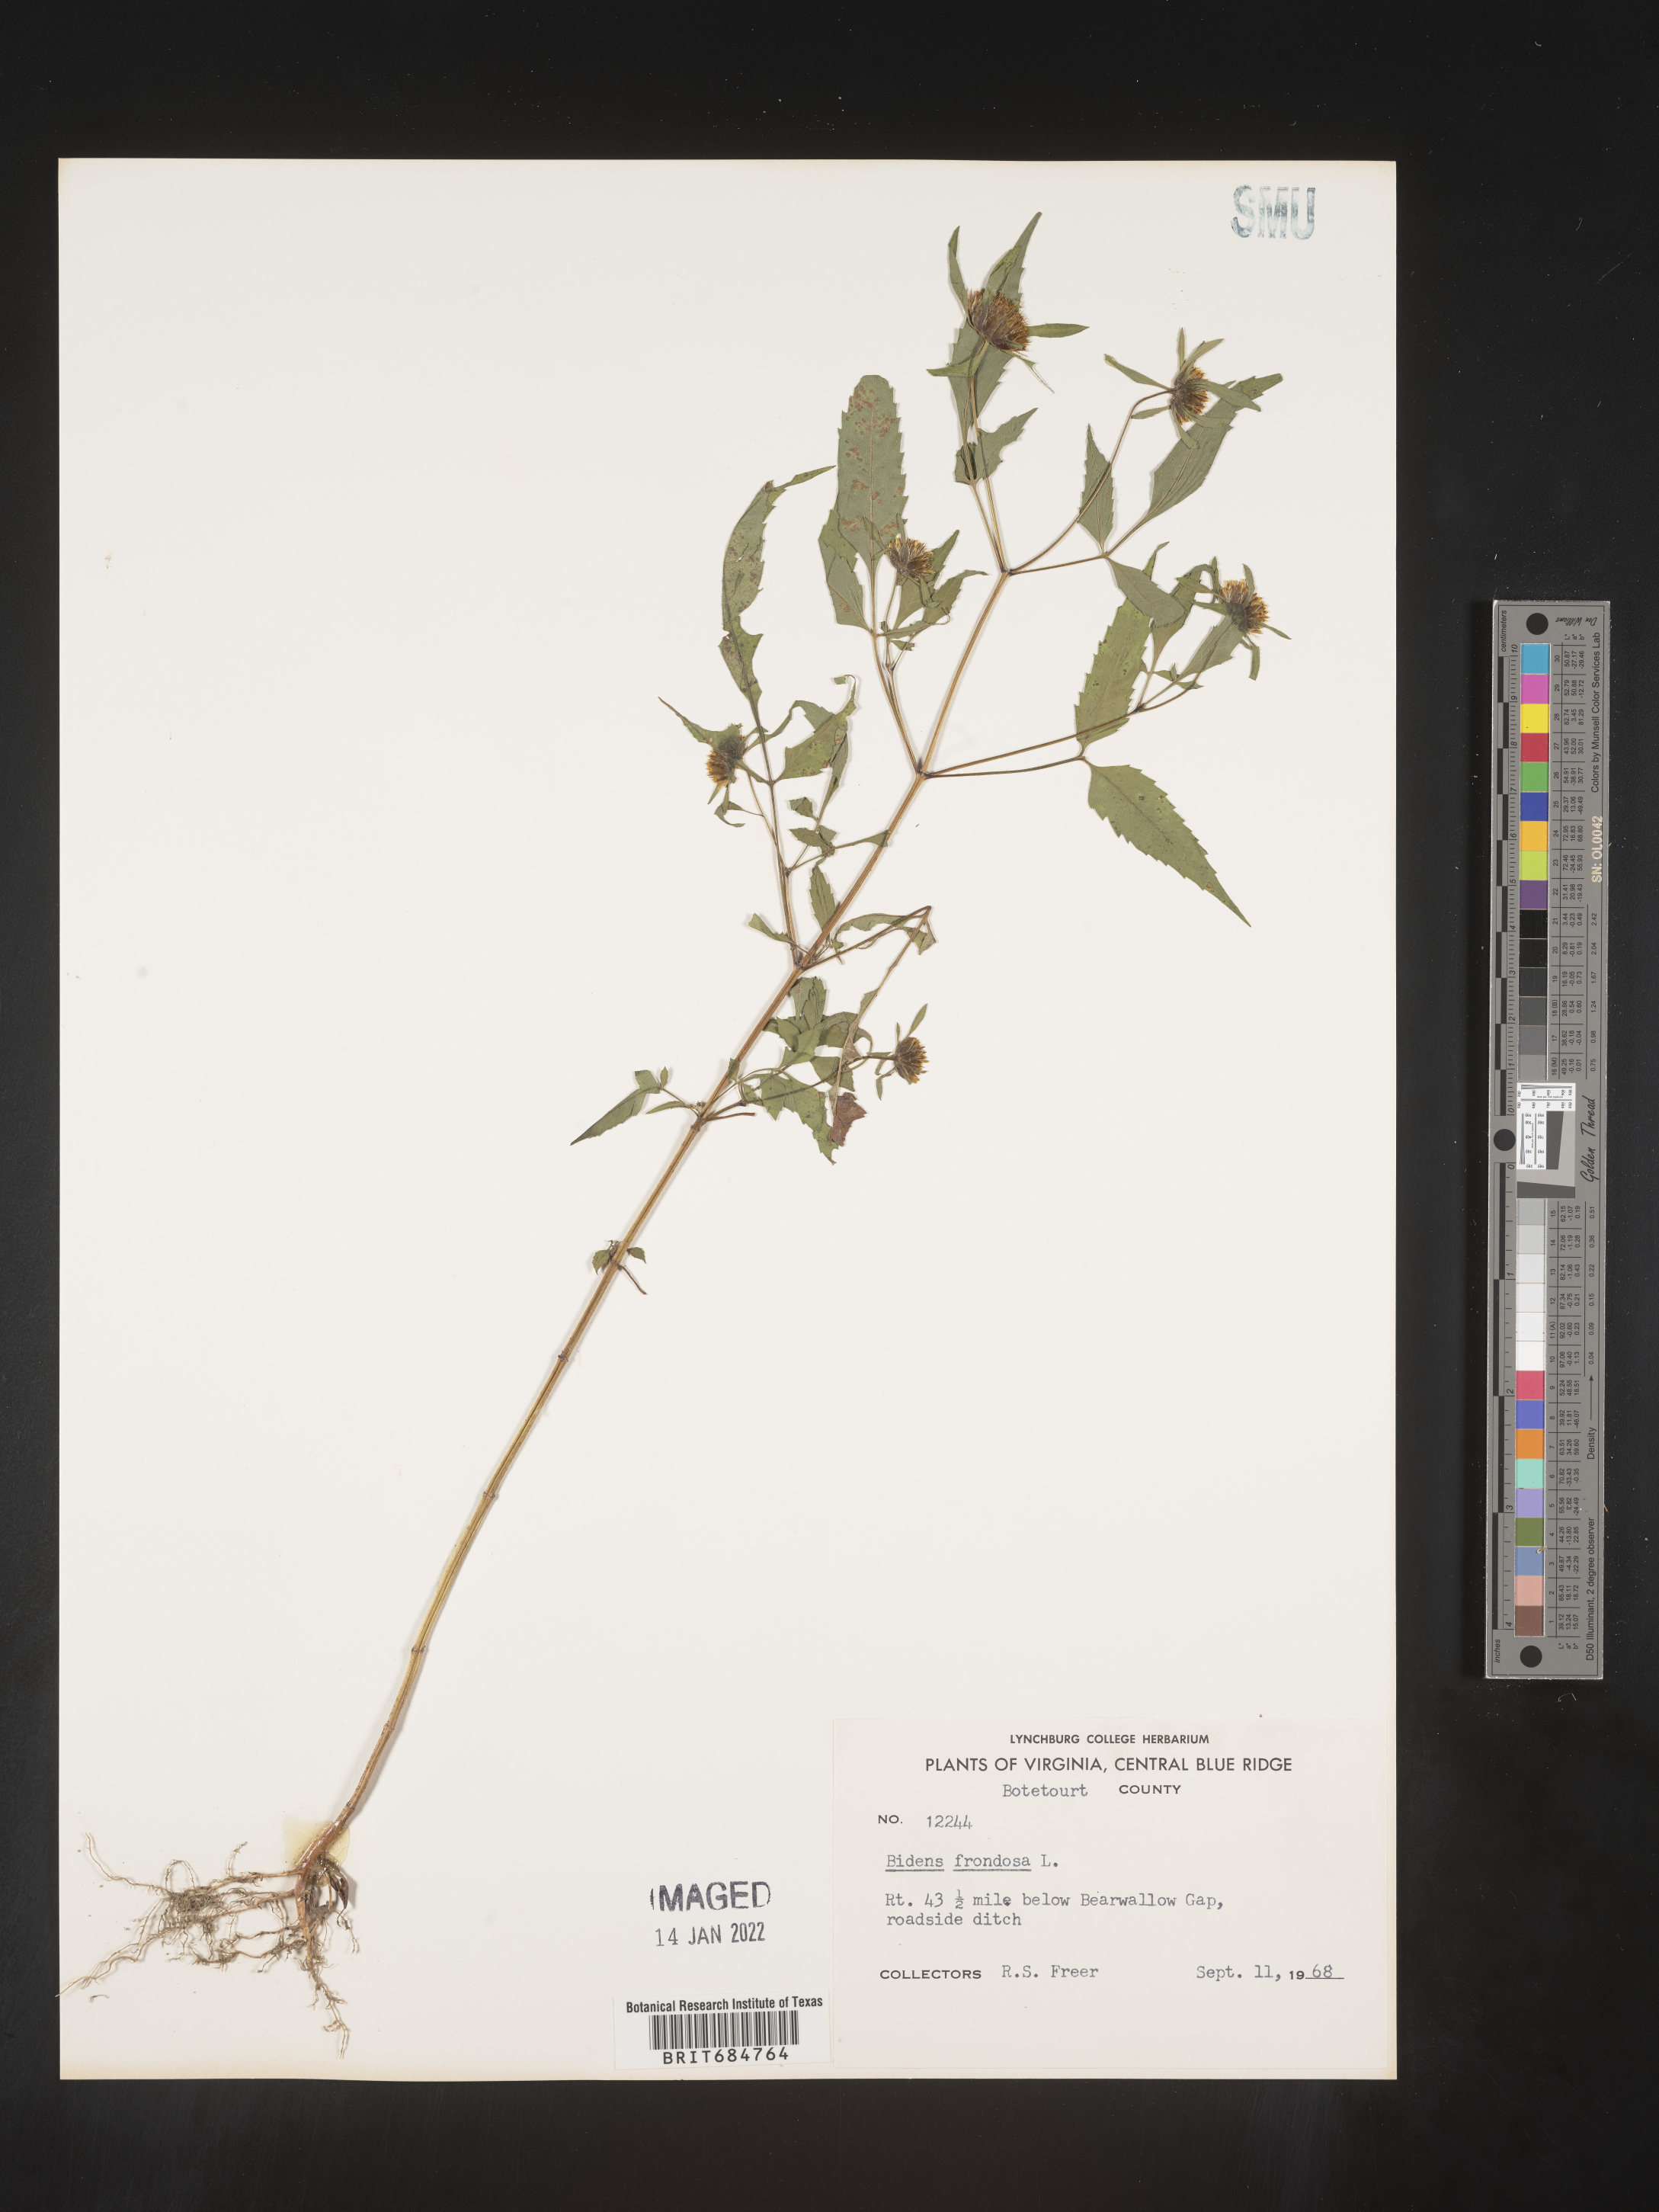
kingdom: Plantae
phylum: Tracheophyta
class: Magnoliopsida
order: Asterales
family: Asteraceae
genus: Bidens
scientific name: Bidens frondosa
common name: Beggarticks
